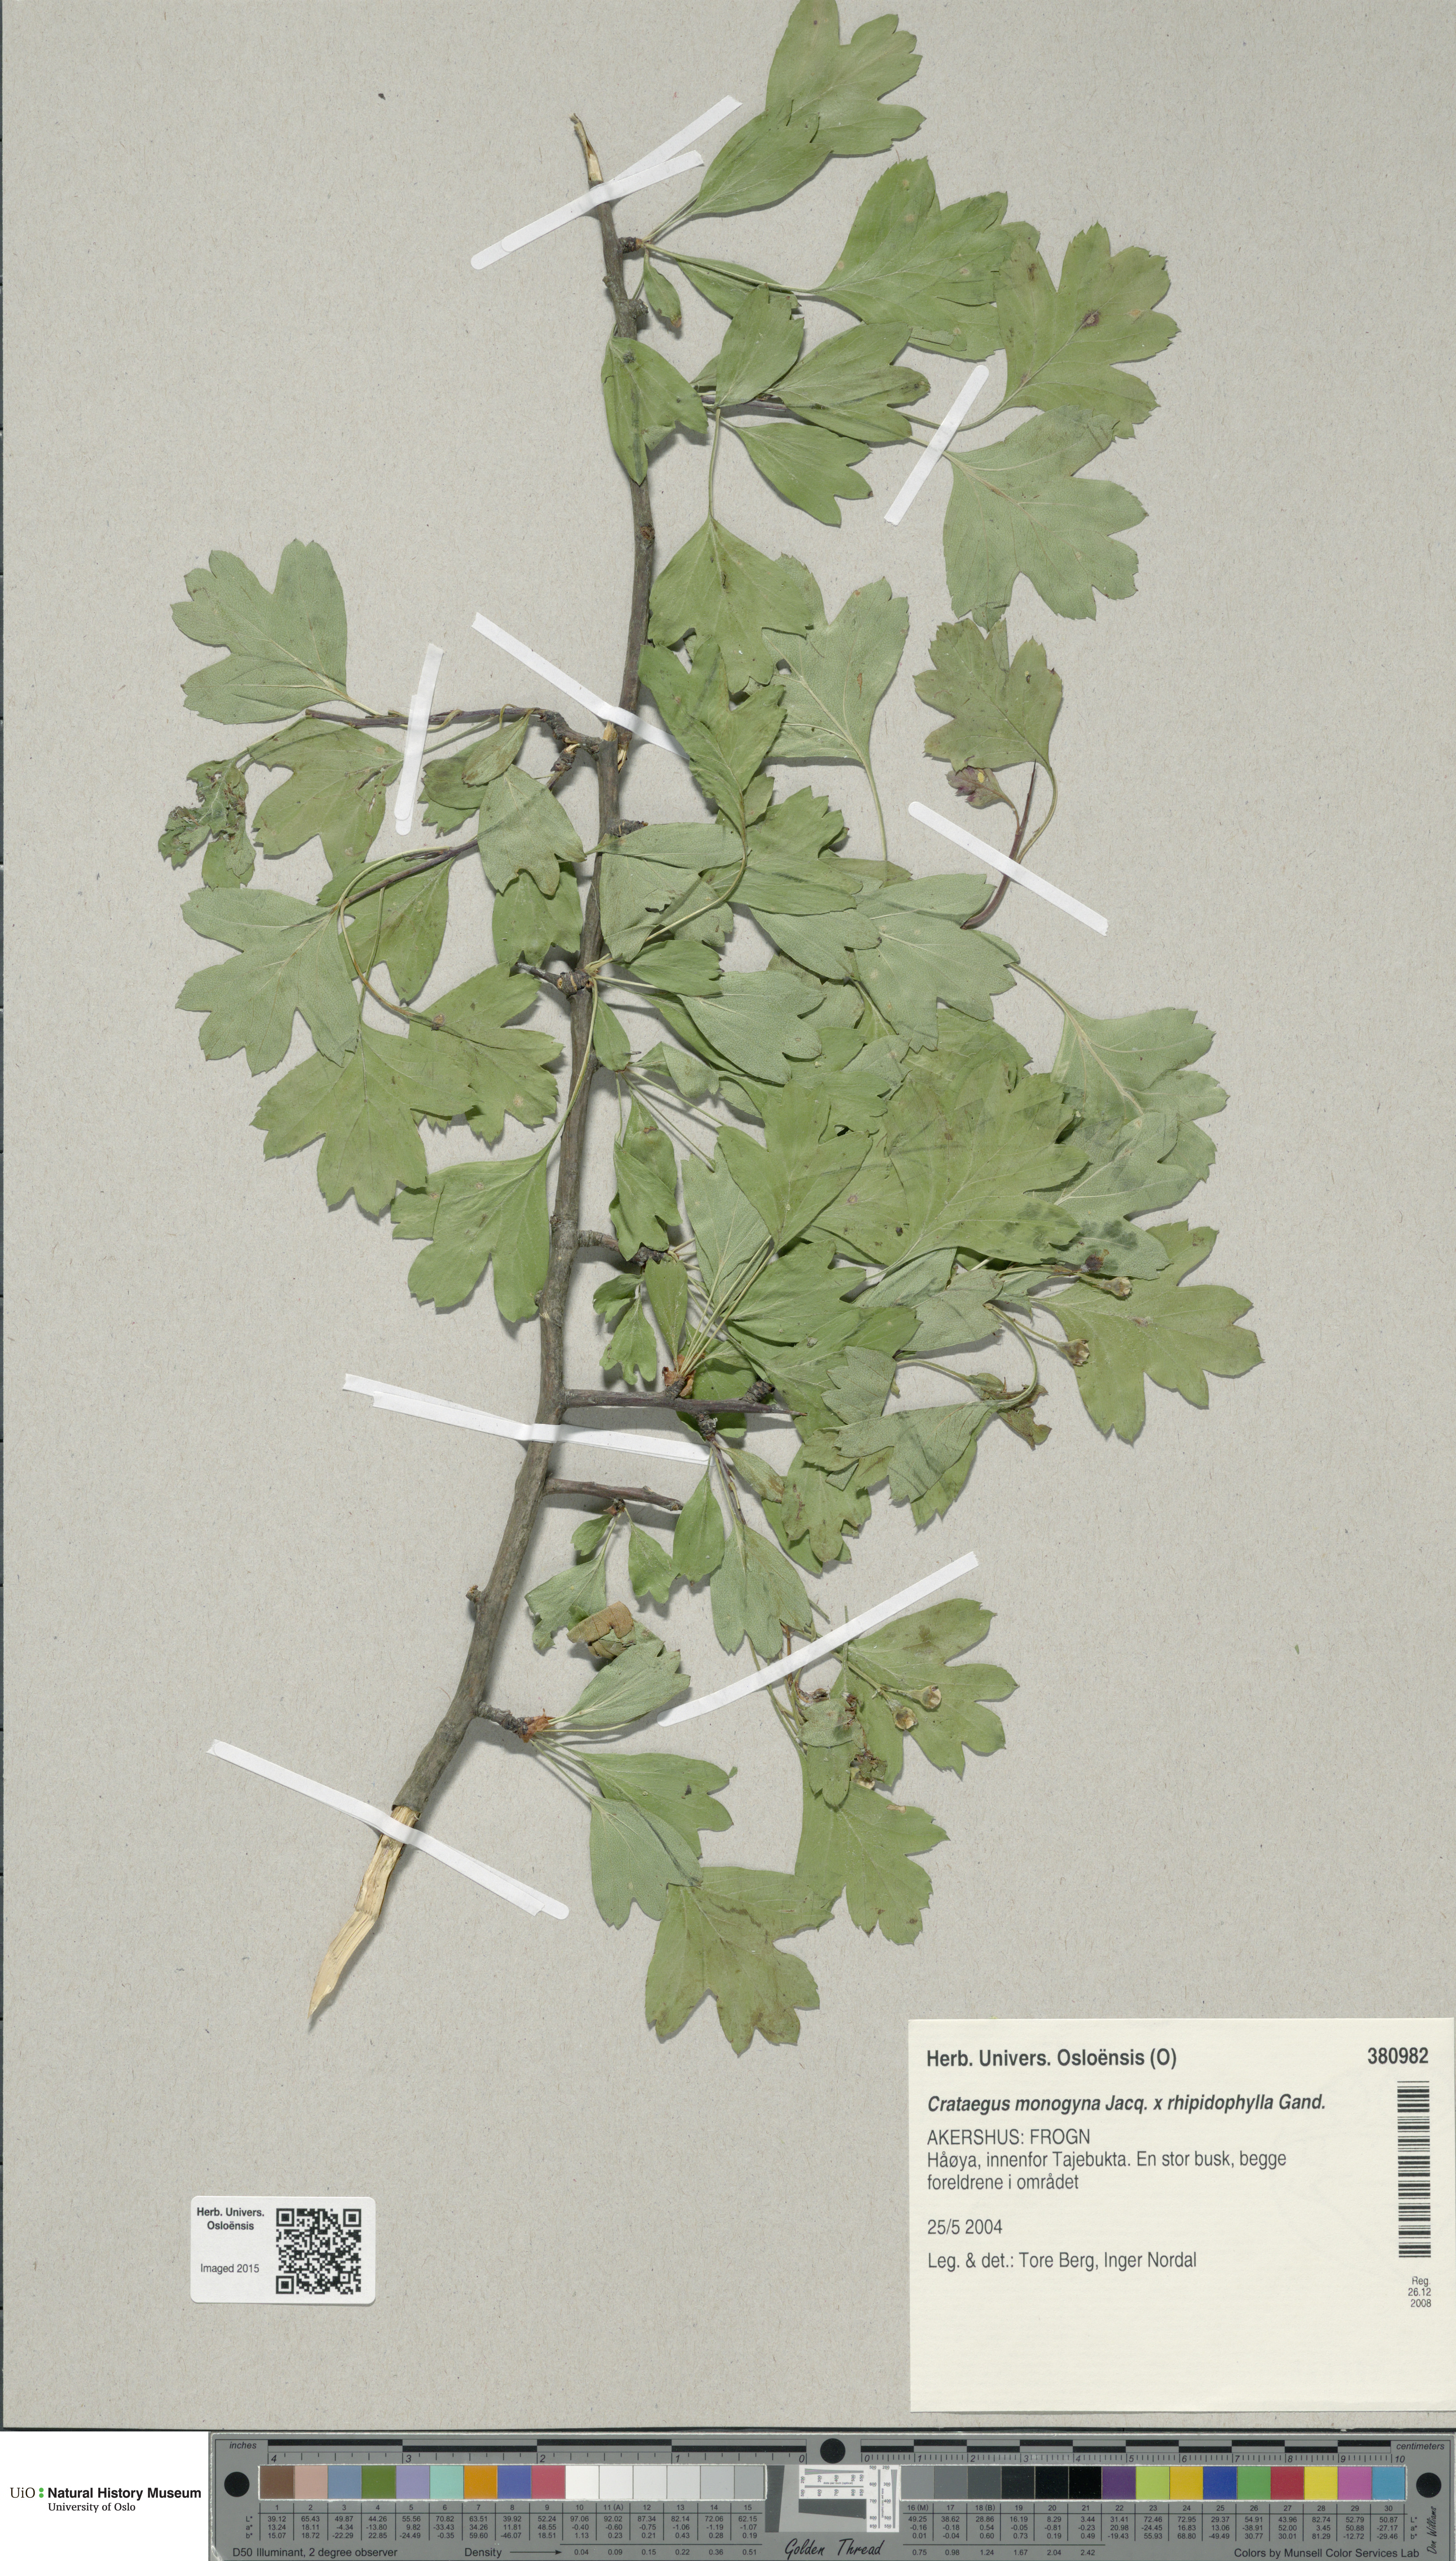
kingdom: Plantae
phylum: Tracheophyta
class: Magnoliopsida
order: Rosales
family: Rosaceae
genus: Crataegus
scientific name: Crataegus
